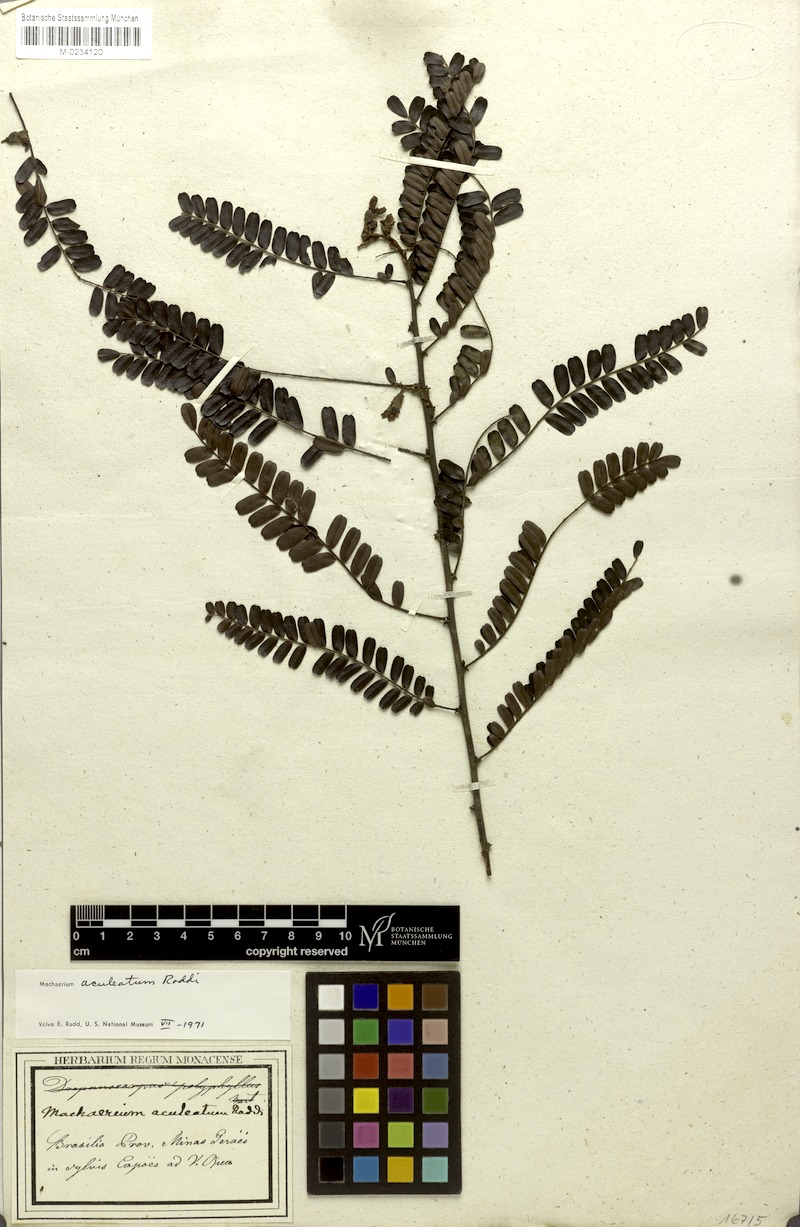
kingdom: Plantae
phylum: Tracheophyta
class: Magnoliopsida
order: Fabales
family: Fabaceae
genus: Machaerium
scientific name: Machaerium aculeatum
